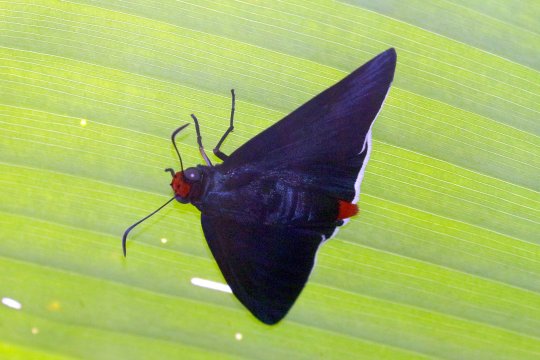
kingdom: Animalia
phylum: Arthropoda
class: Insecta
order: Lepidoptera
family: Hesperiidae
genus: Pyrrhopyge
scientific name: Pyrrhopyge phidias
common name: Original Firetip
